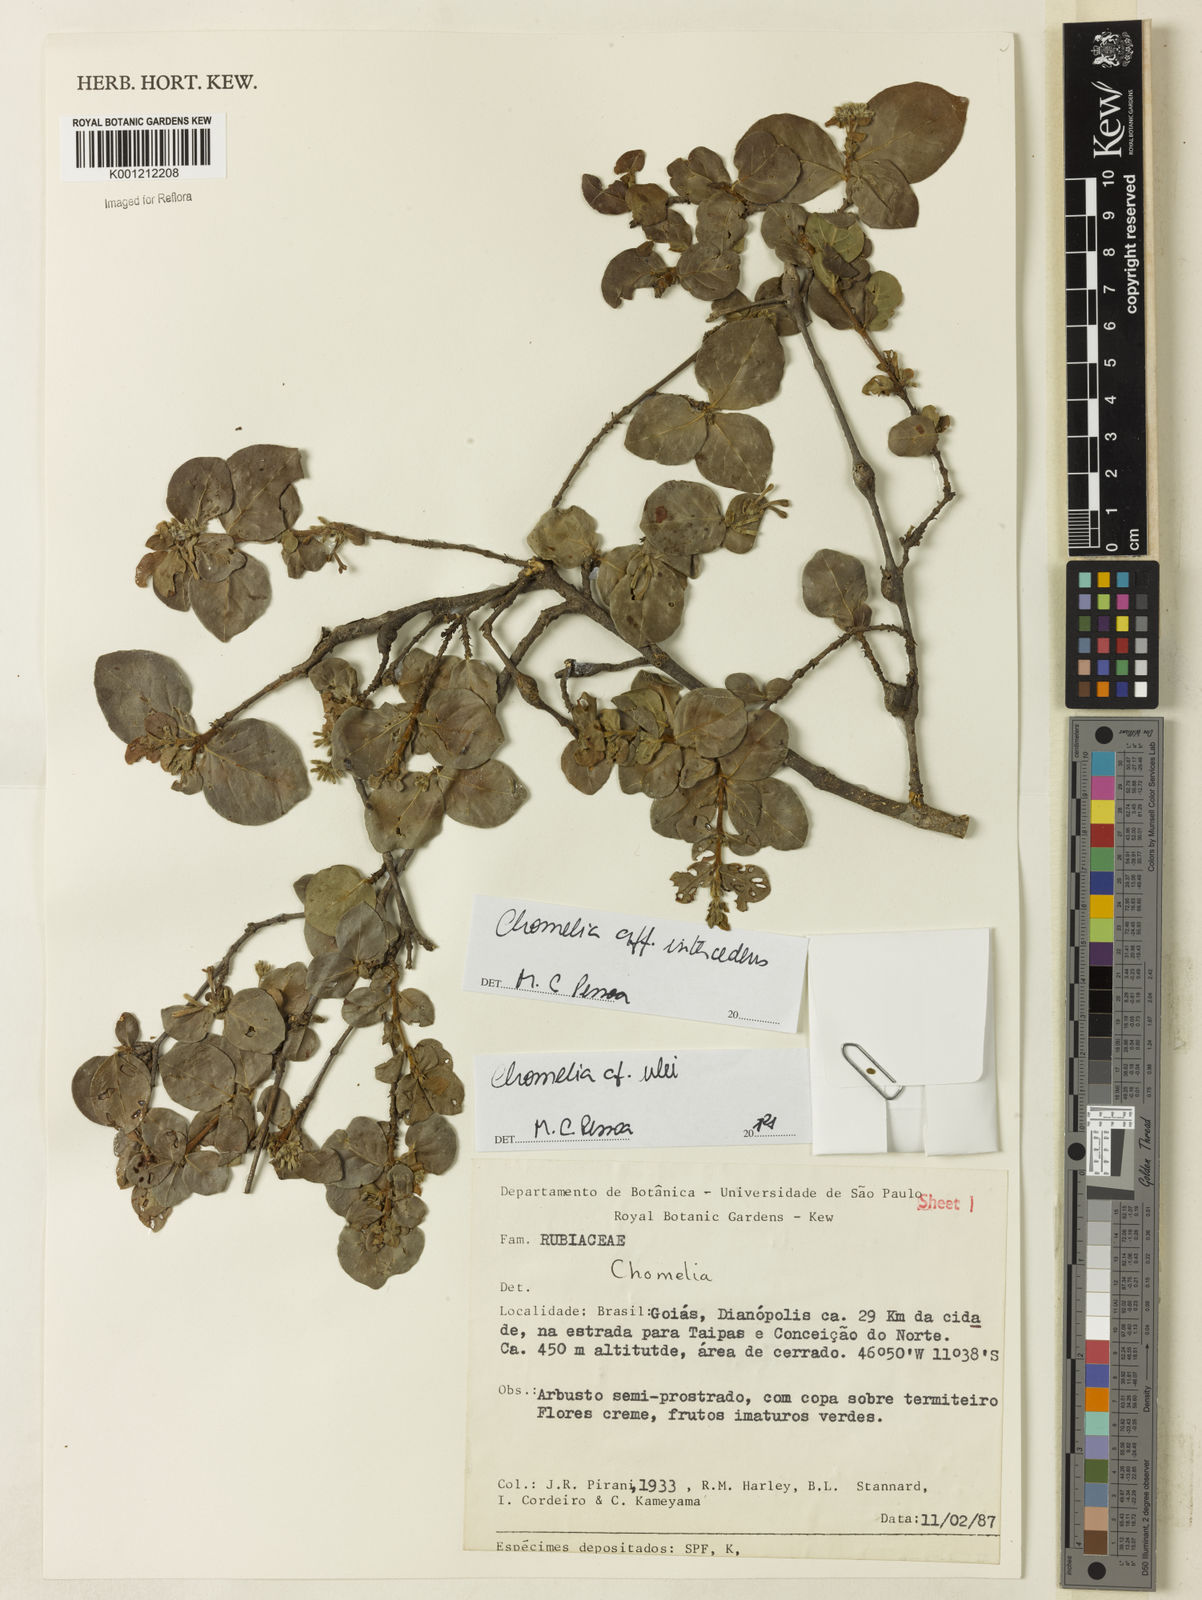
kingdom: Plantae
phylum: Tracheophyta
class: Magnoliopsida
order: Gentianales
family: Rubiaceae
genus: Chomelia
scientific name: Chomelia
